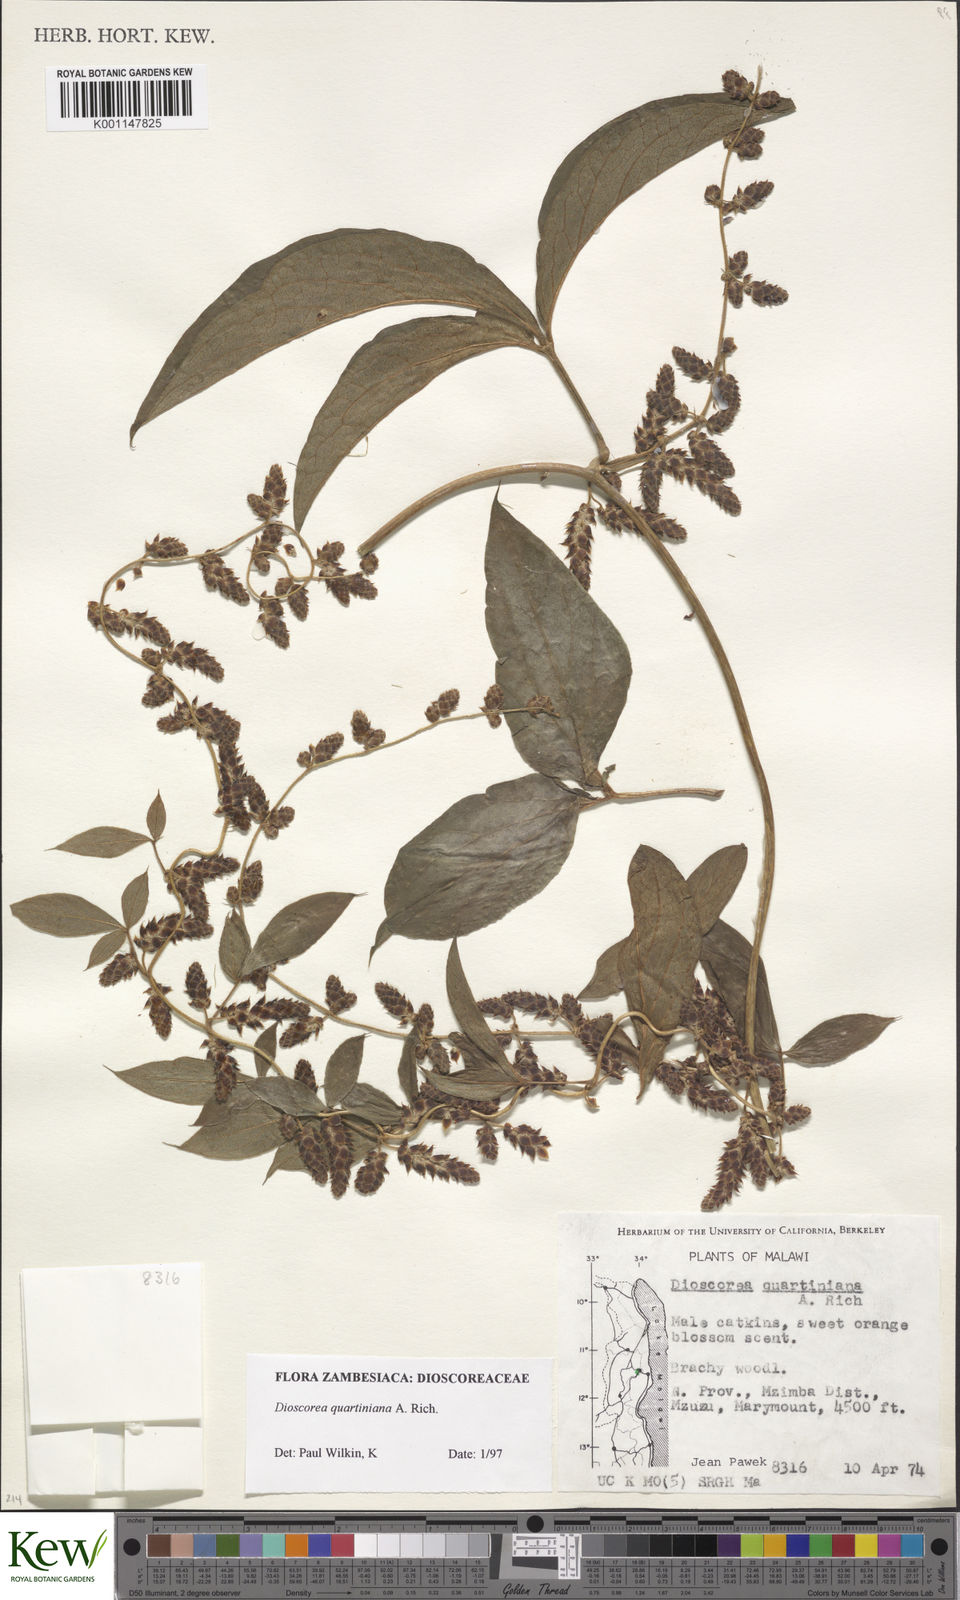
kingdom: Plantae
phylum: Tracheophyta
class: Liliopsida
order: Dioscoreales
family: Dioscoreaceae
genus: Dioscorea
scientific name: Dioscorea quartiniana
